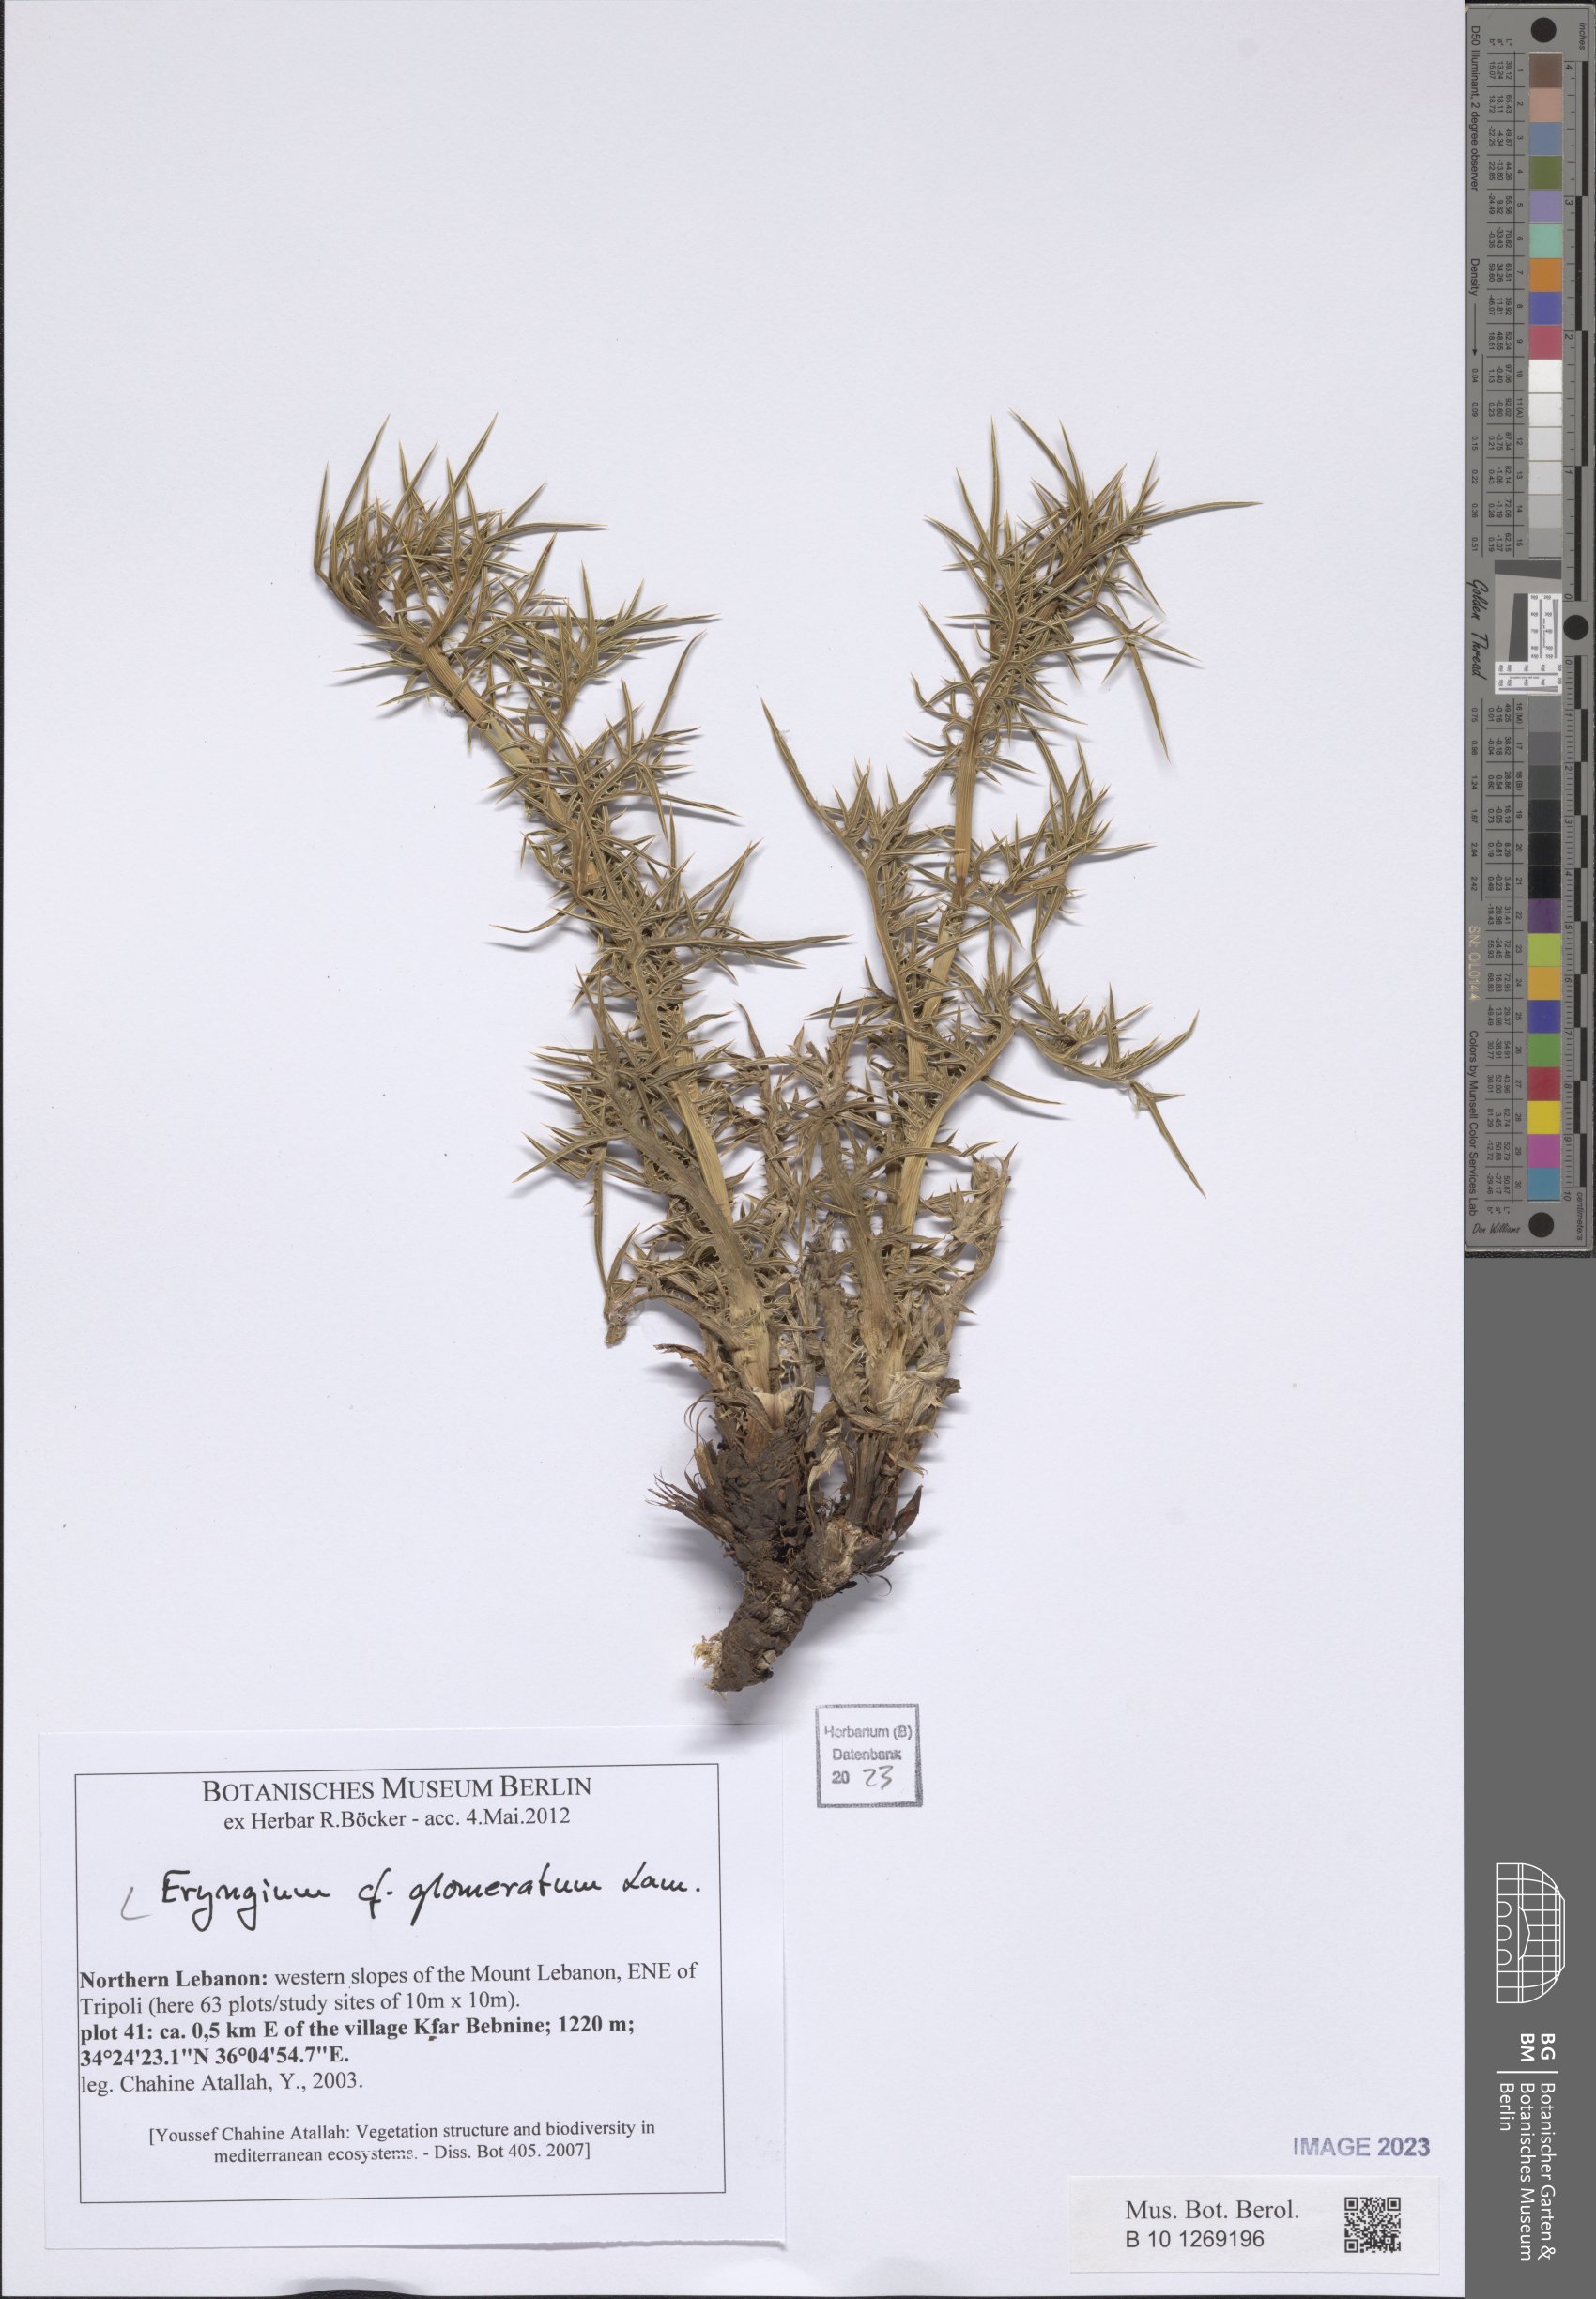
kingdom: Plantae
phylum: Tracheophyta
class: Magnoliopsida
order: Apiales
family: Apiaceae
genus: Eryngium
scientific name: Eryngium glomeratum
